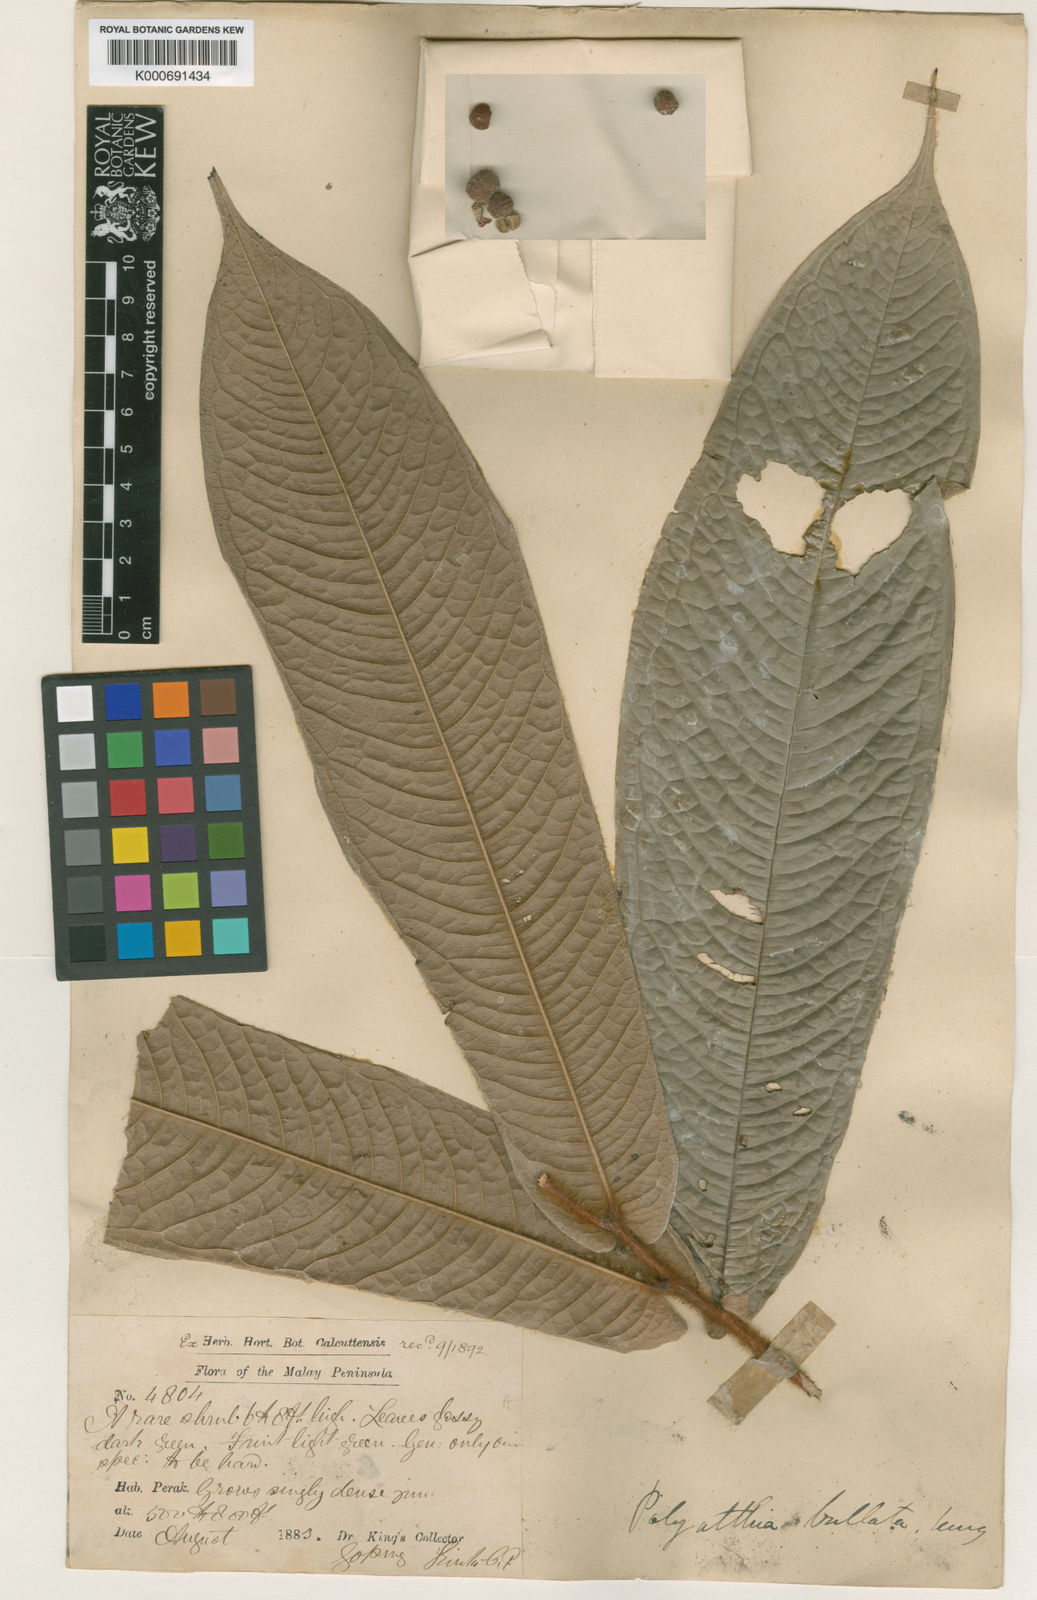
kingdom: Plantae
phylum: Tracheophyta
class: Magnoliopsida
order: Magnoliales
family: Annonaceae
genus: Polyalthia
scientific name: Polyalthia bullata
